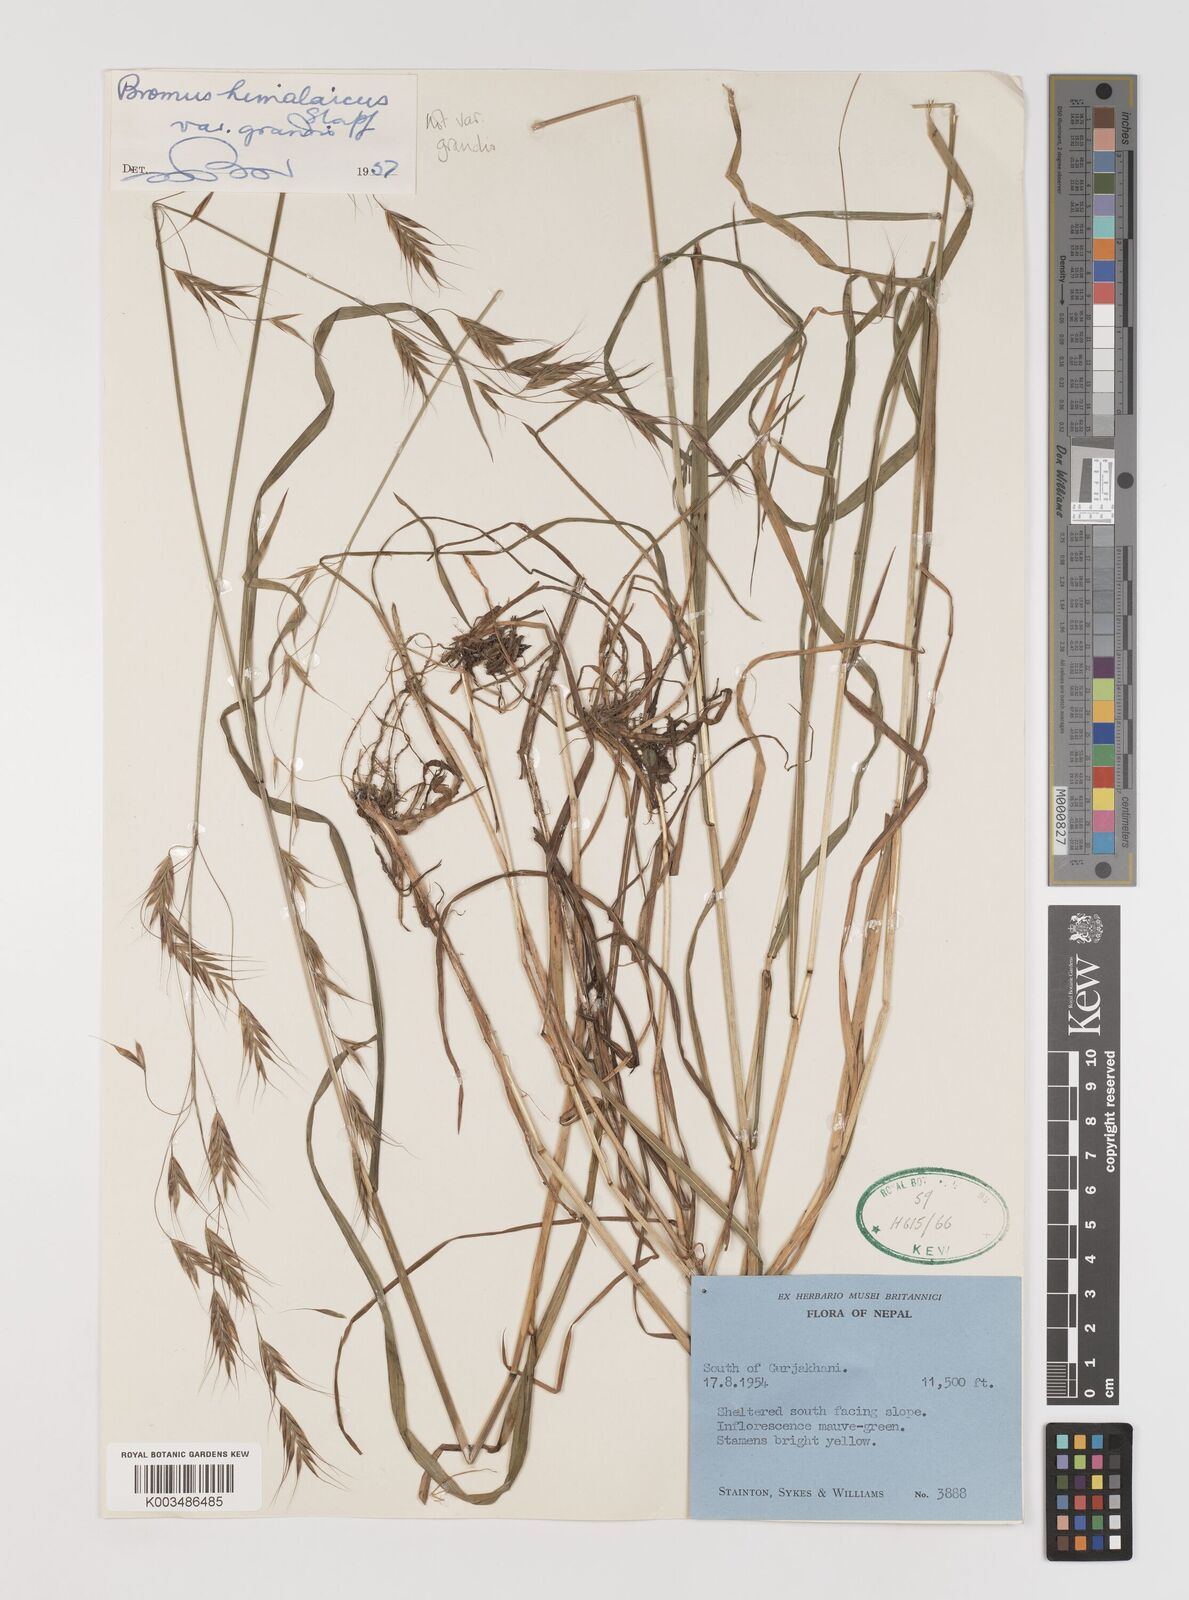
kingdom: Plantae
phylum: Tracheophyta
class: Liliopsida
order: Poales
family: Poaceae
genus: Bromus
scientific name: Bromus himalaicus
